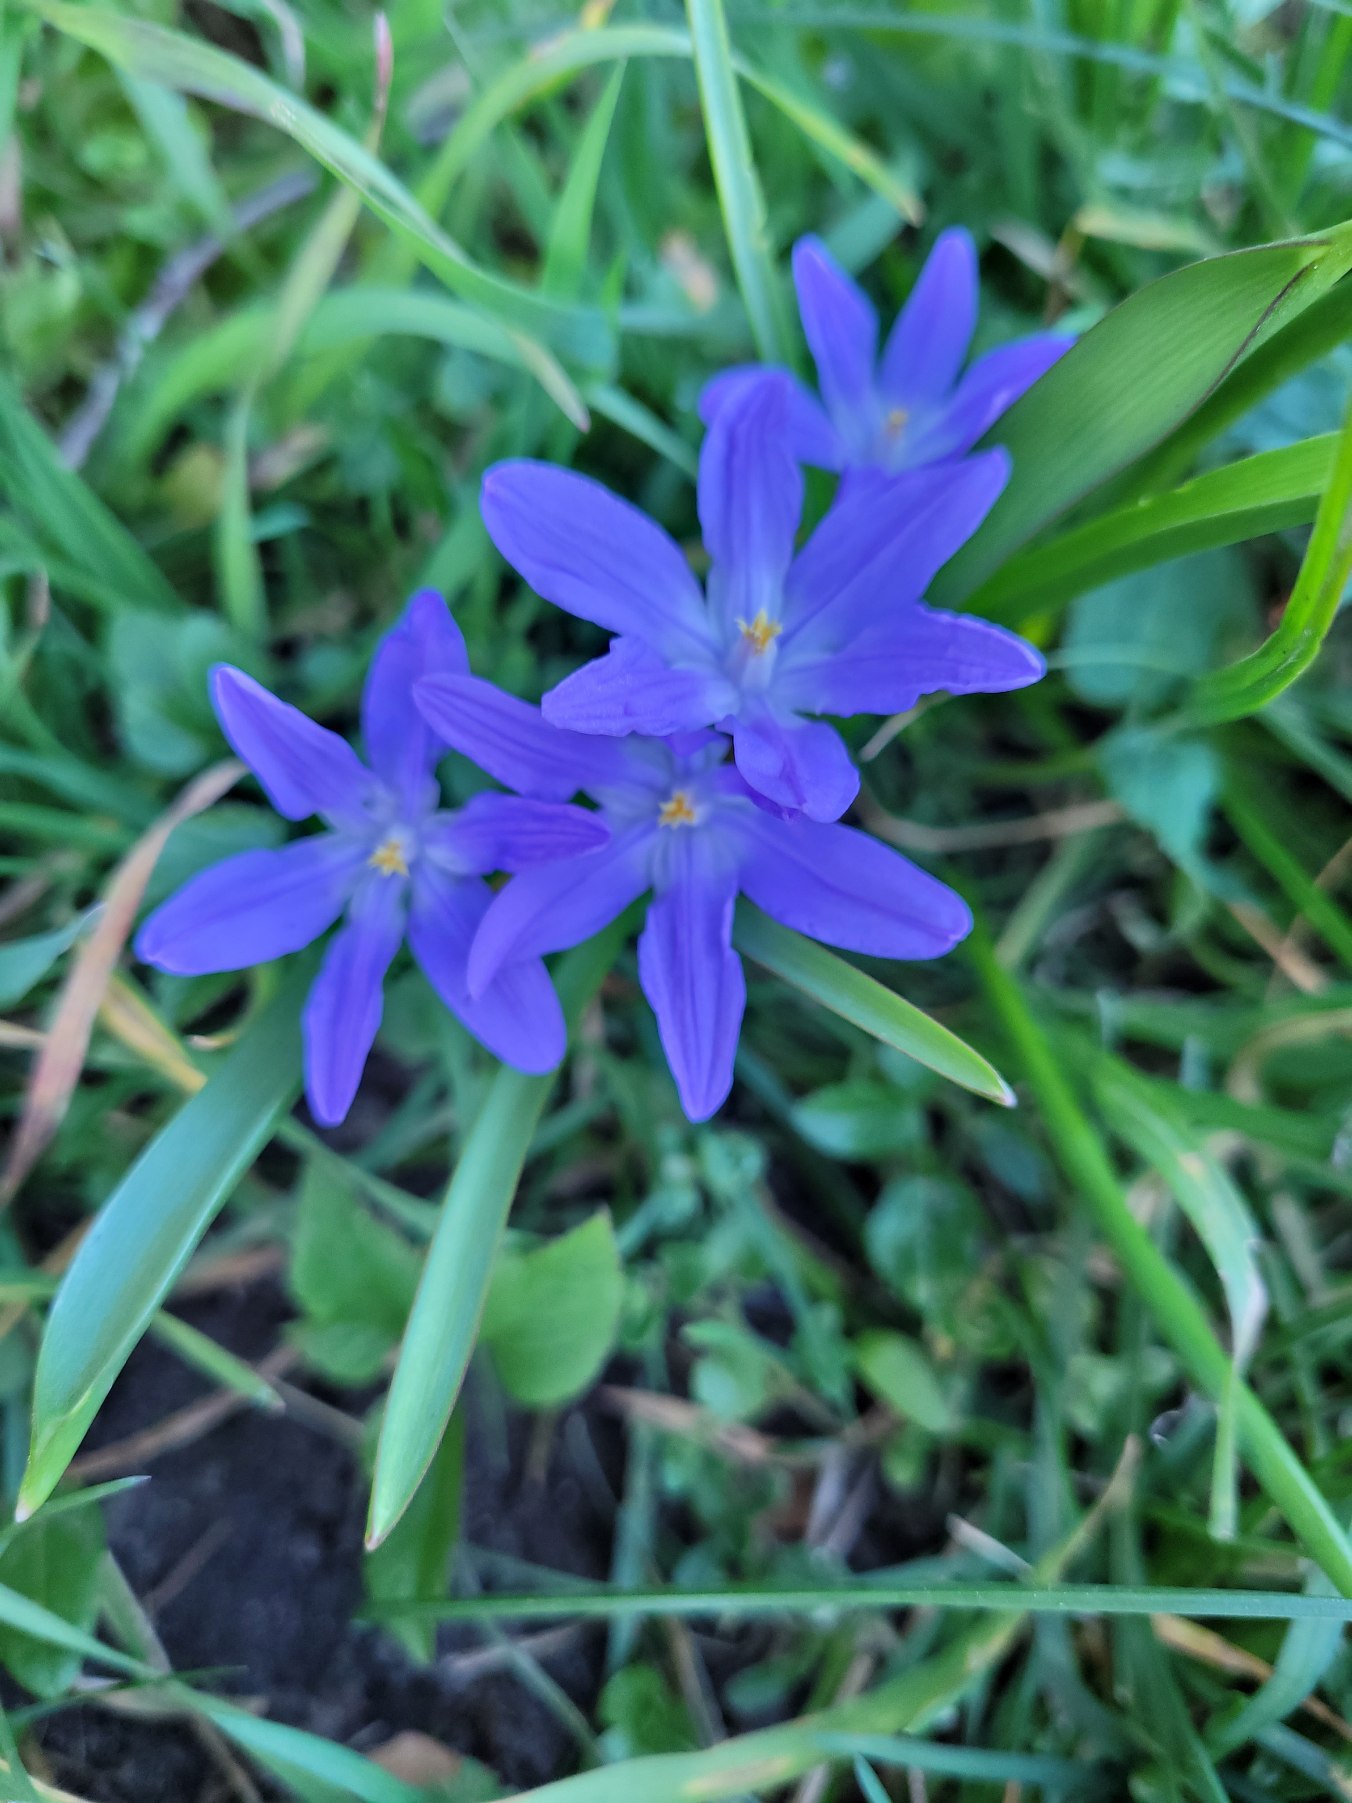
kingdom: Plantae
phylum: Tracheophyta
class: Liliopsida
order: Asparagales
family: Asparagaceae
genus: Scilla
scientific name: Scilla luciliae
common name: Stor snepryd
